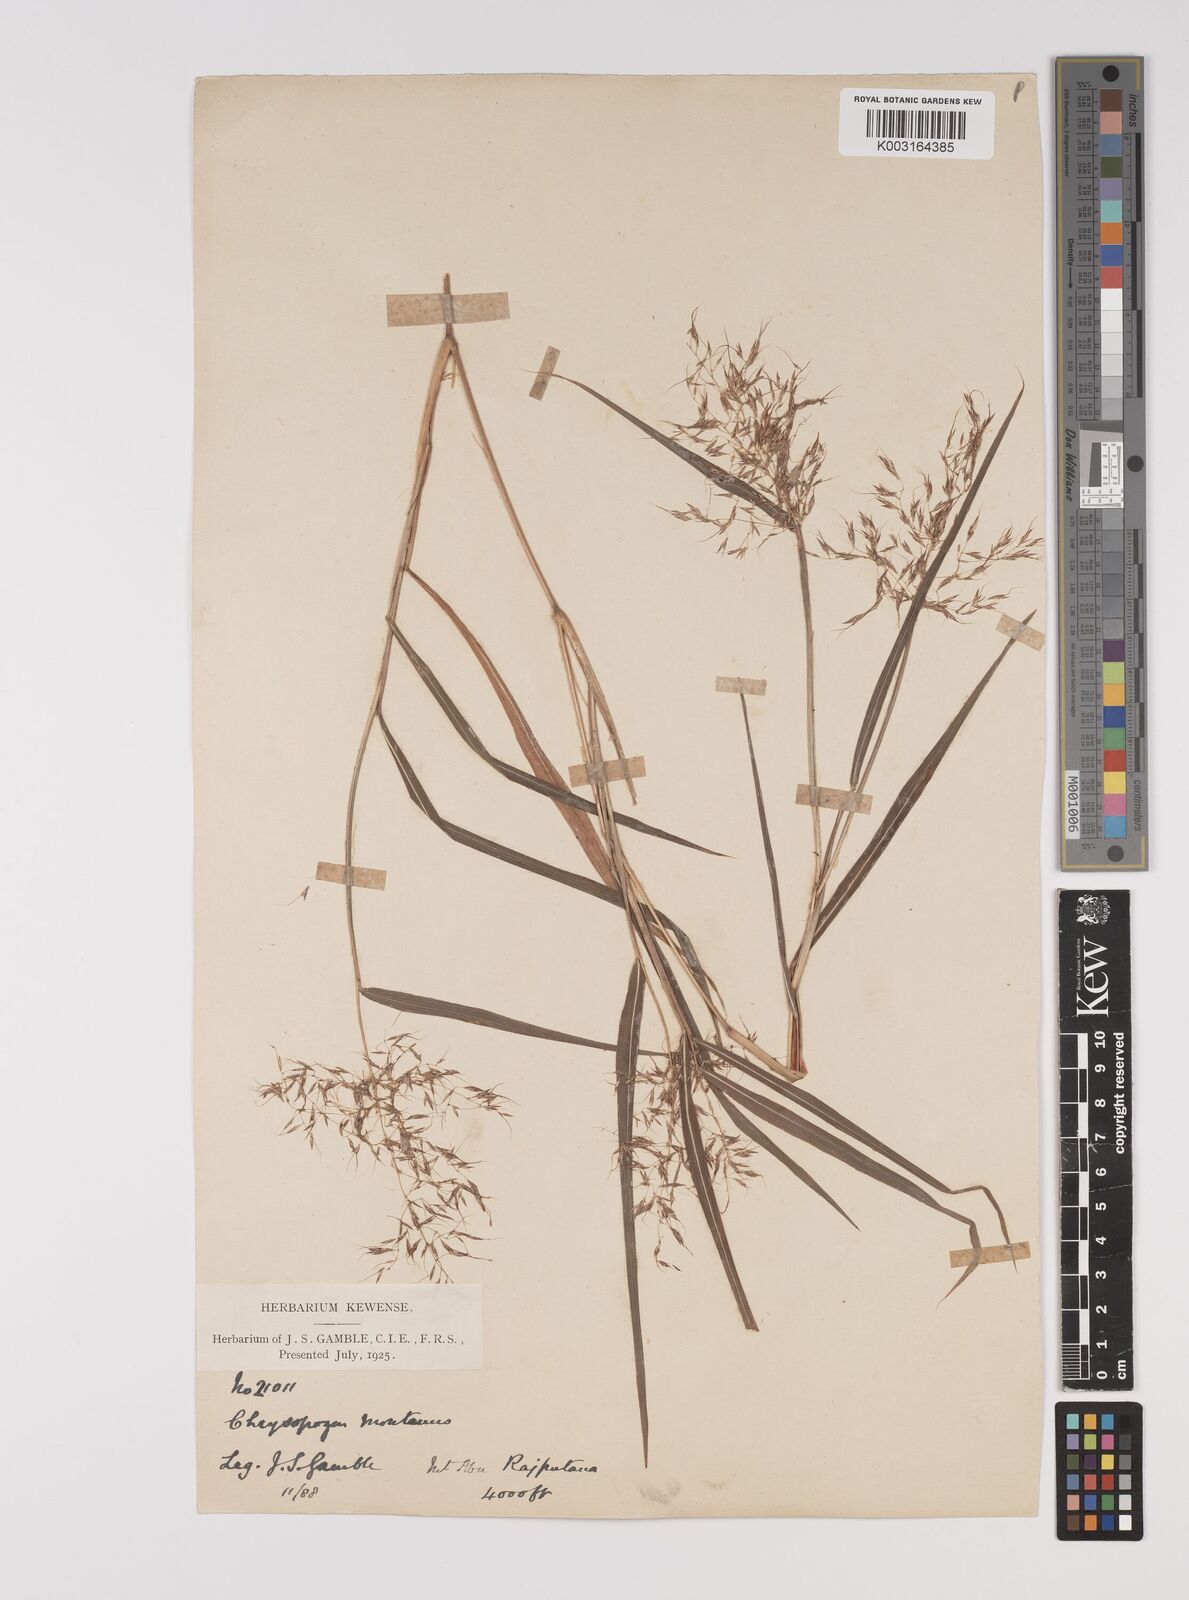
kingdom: Plantae
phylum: Tracheophyta
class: Liliopsida
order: Poales
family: Poaceae
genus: Capillipedium
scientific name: Capillipedium assimile
